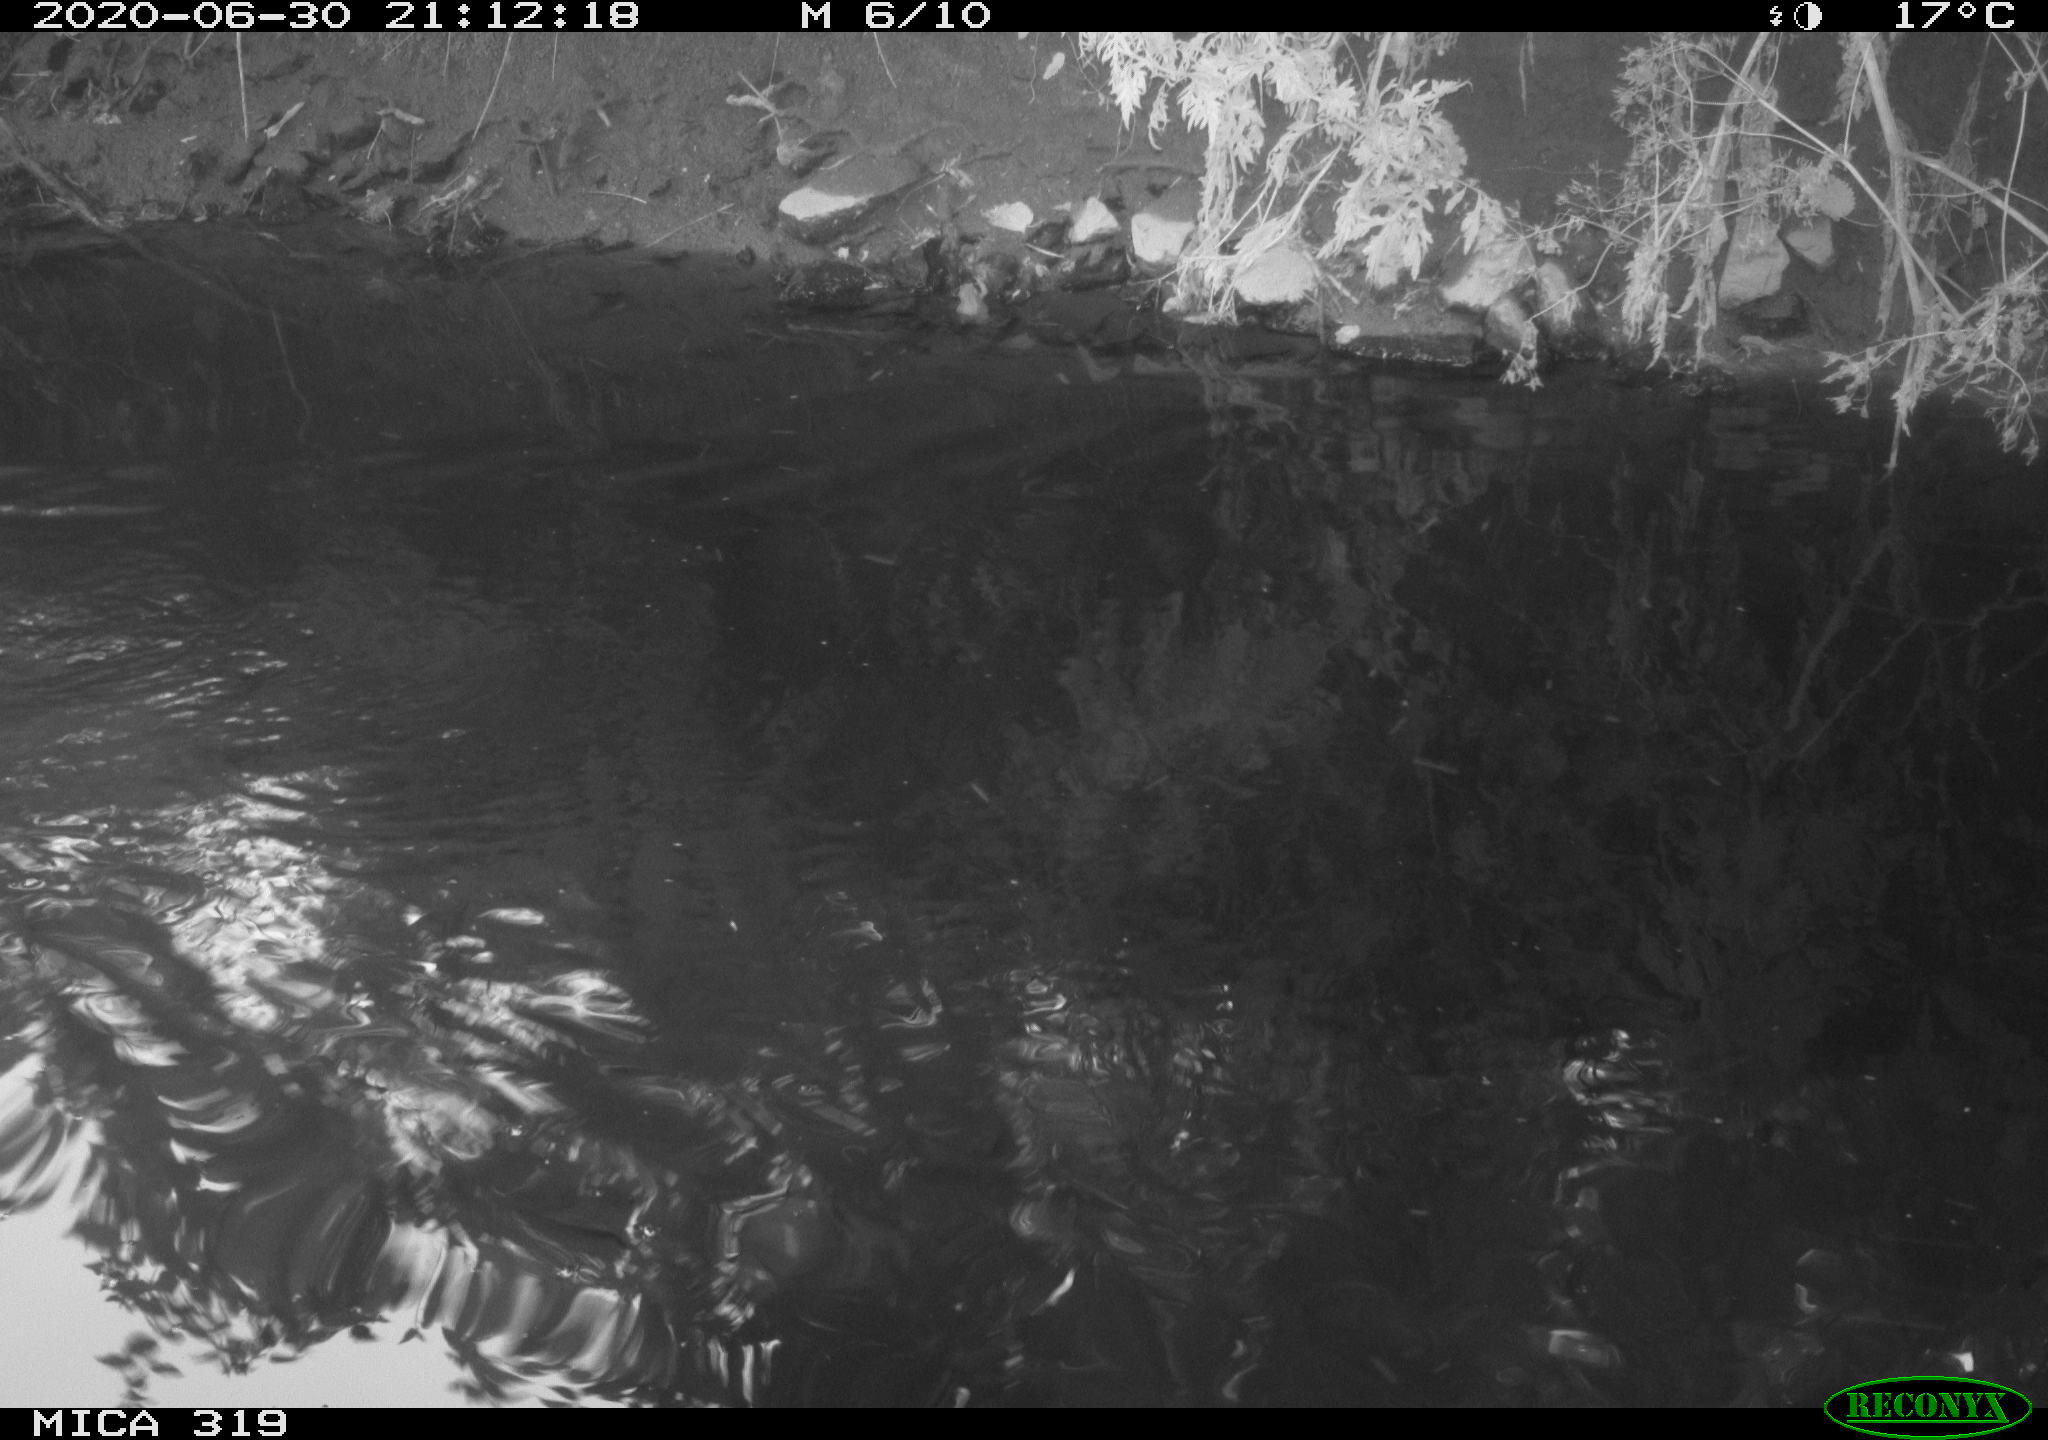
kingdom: Animalia
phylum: Chordata
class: Aves
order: Anseriformes
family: Anatidae
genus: Anas
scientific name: Anas platyrhynchos
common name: Mallard
